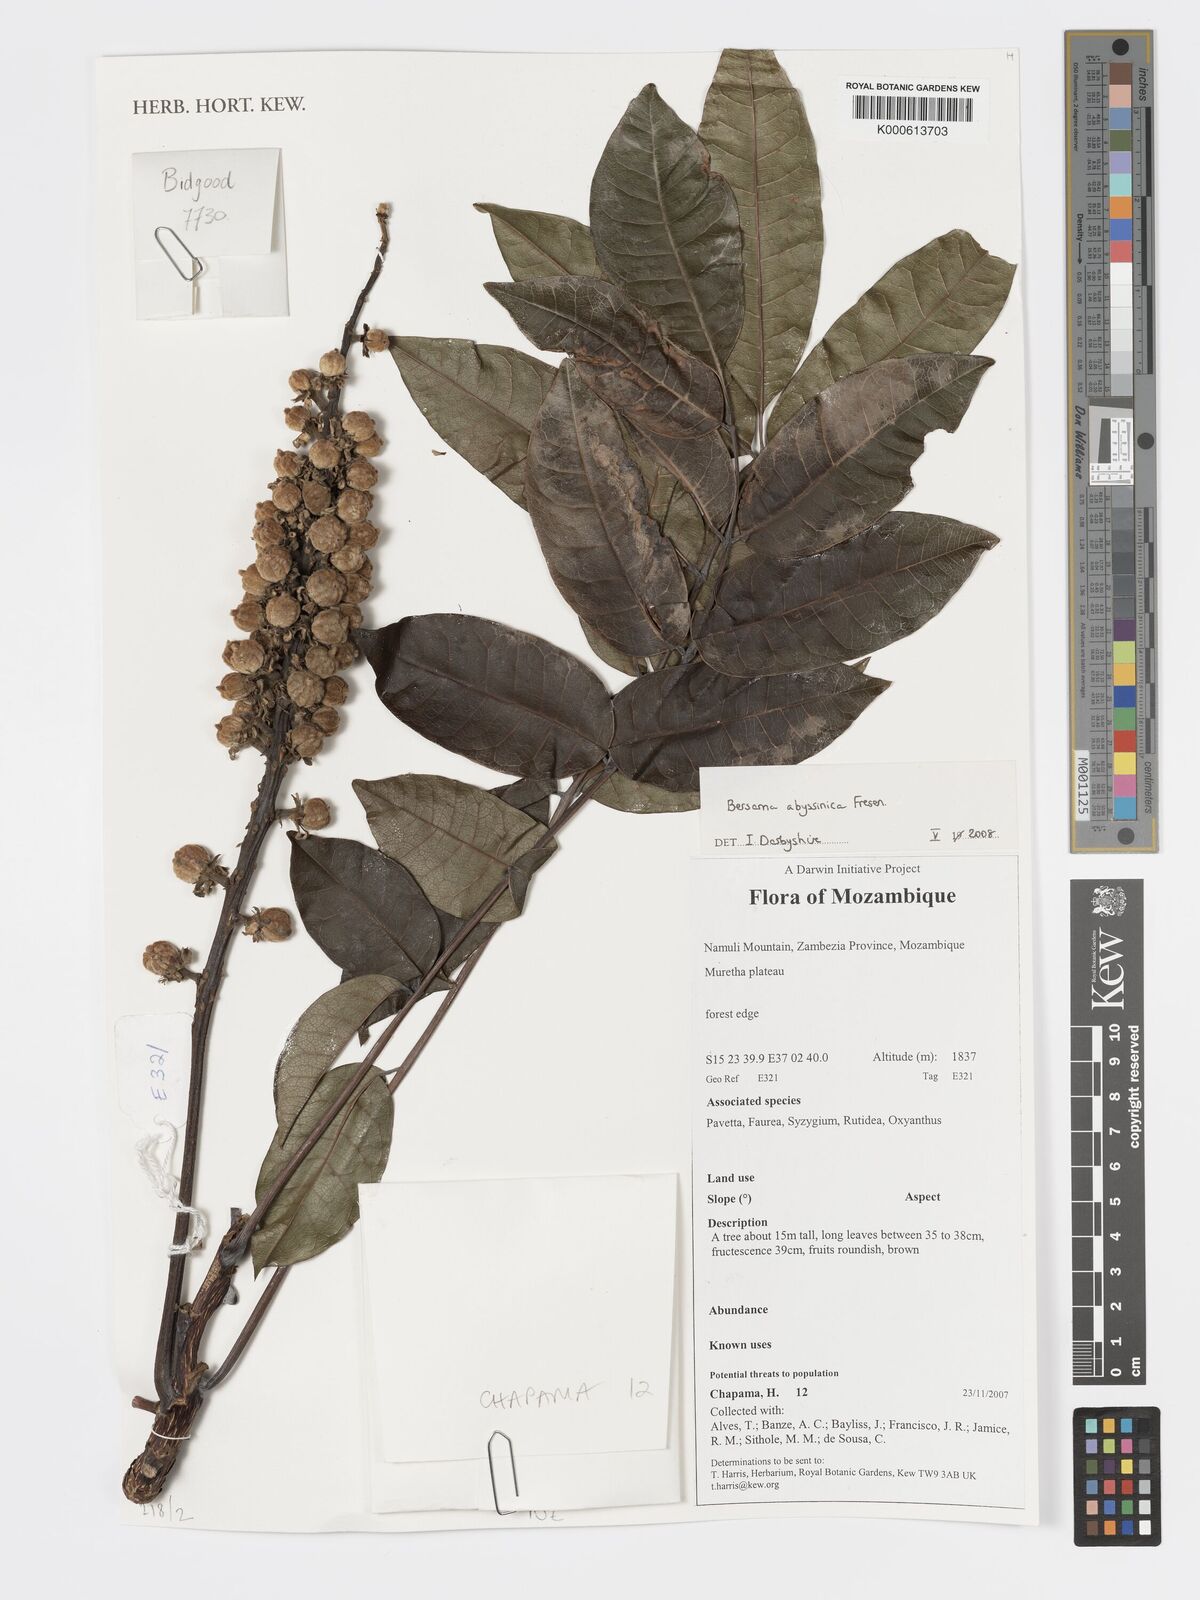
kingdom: Plantae
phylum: Tracheophyta
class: Magnoliopsida
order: Geraniales
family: Melianthaceae
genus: Bersama
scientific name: Bersama abyssinica
